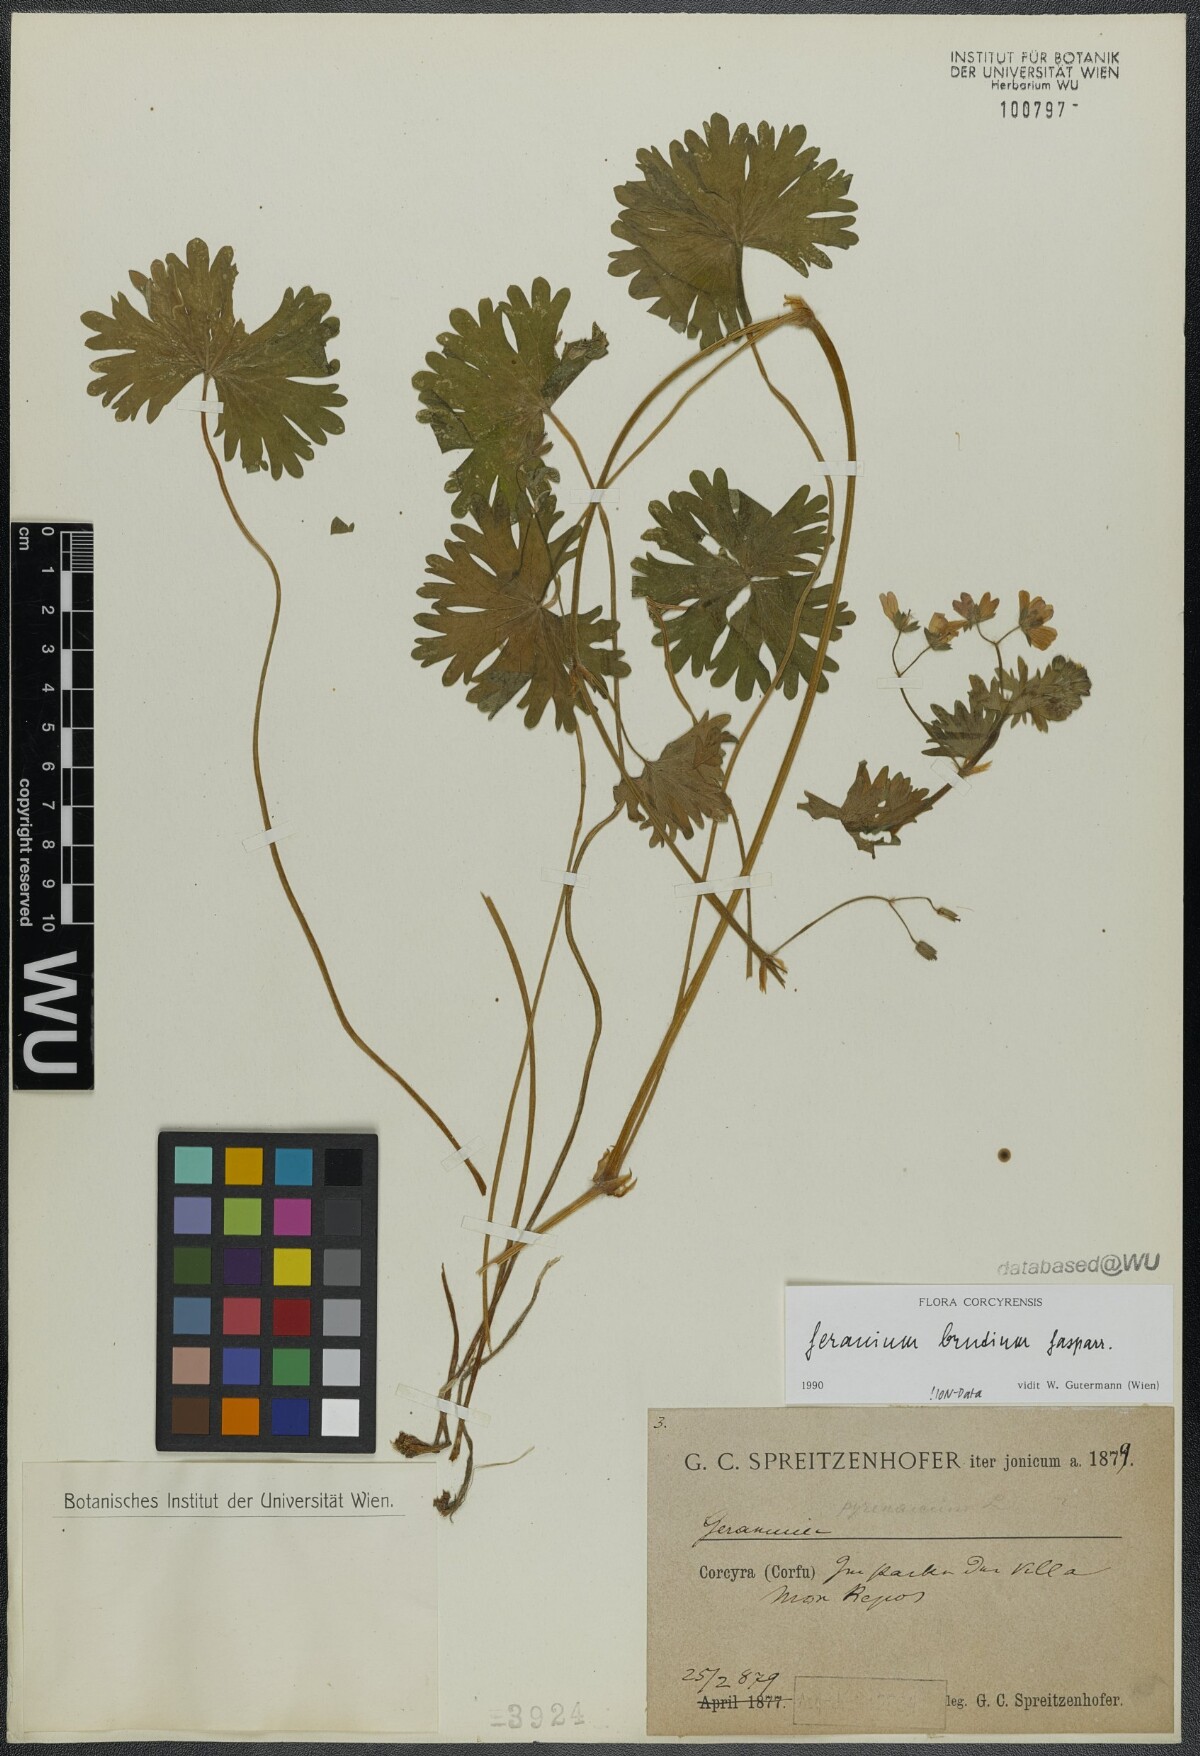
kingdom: Plantae
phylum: Tracheophyta
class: Magnoliopsida
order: Geraniales
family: Geraniaceae
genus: Geranium
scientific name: Geranium molle
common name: Dove's-foot crane's-bill
